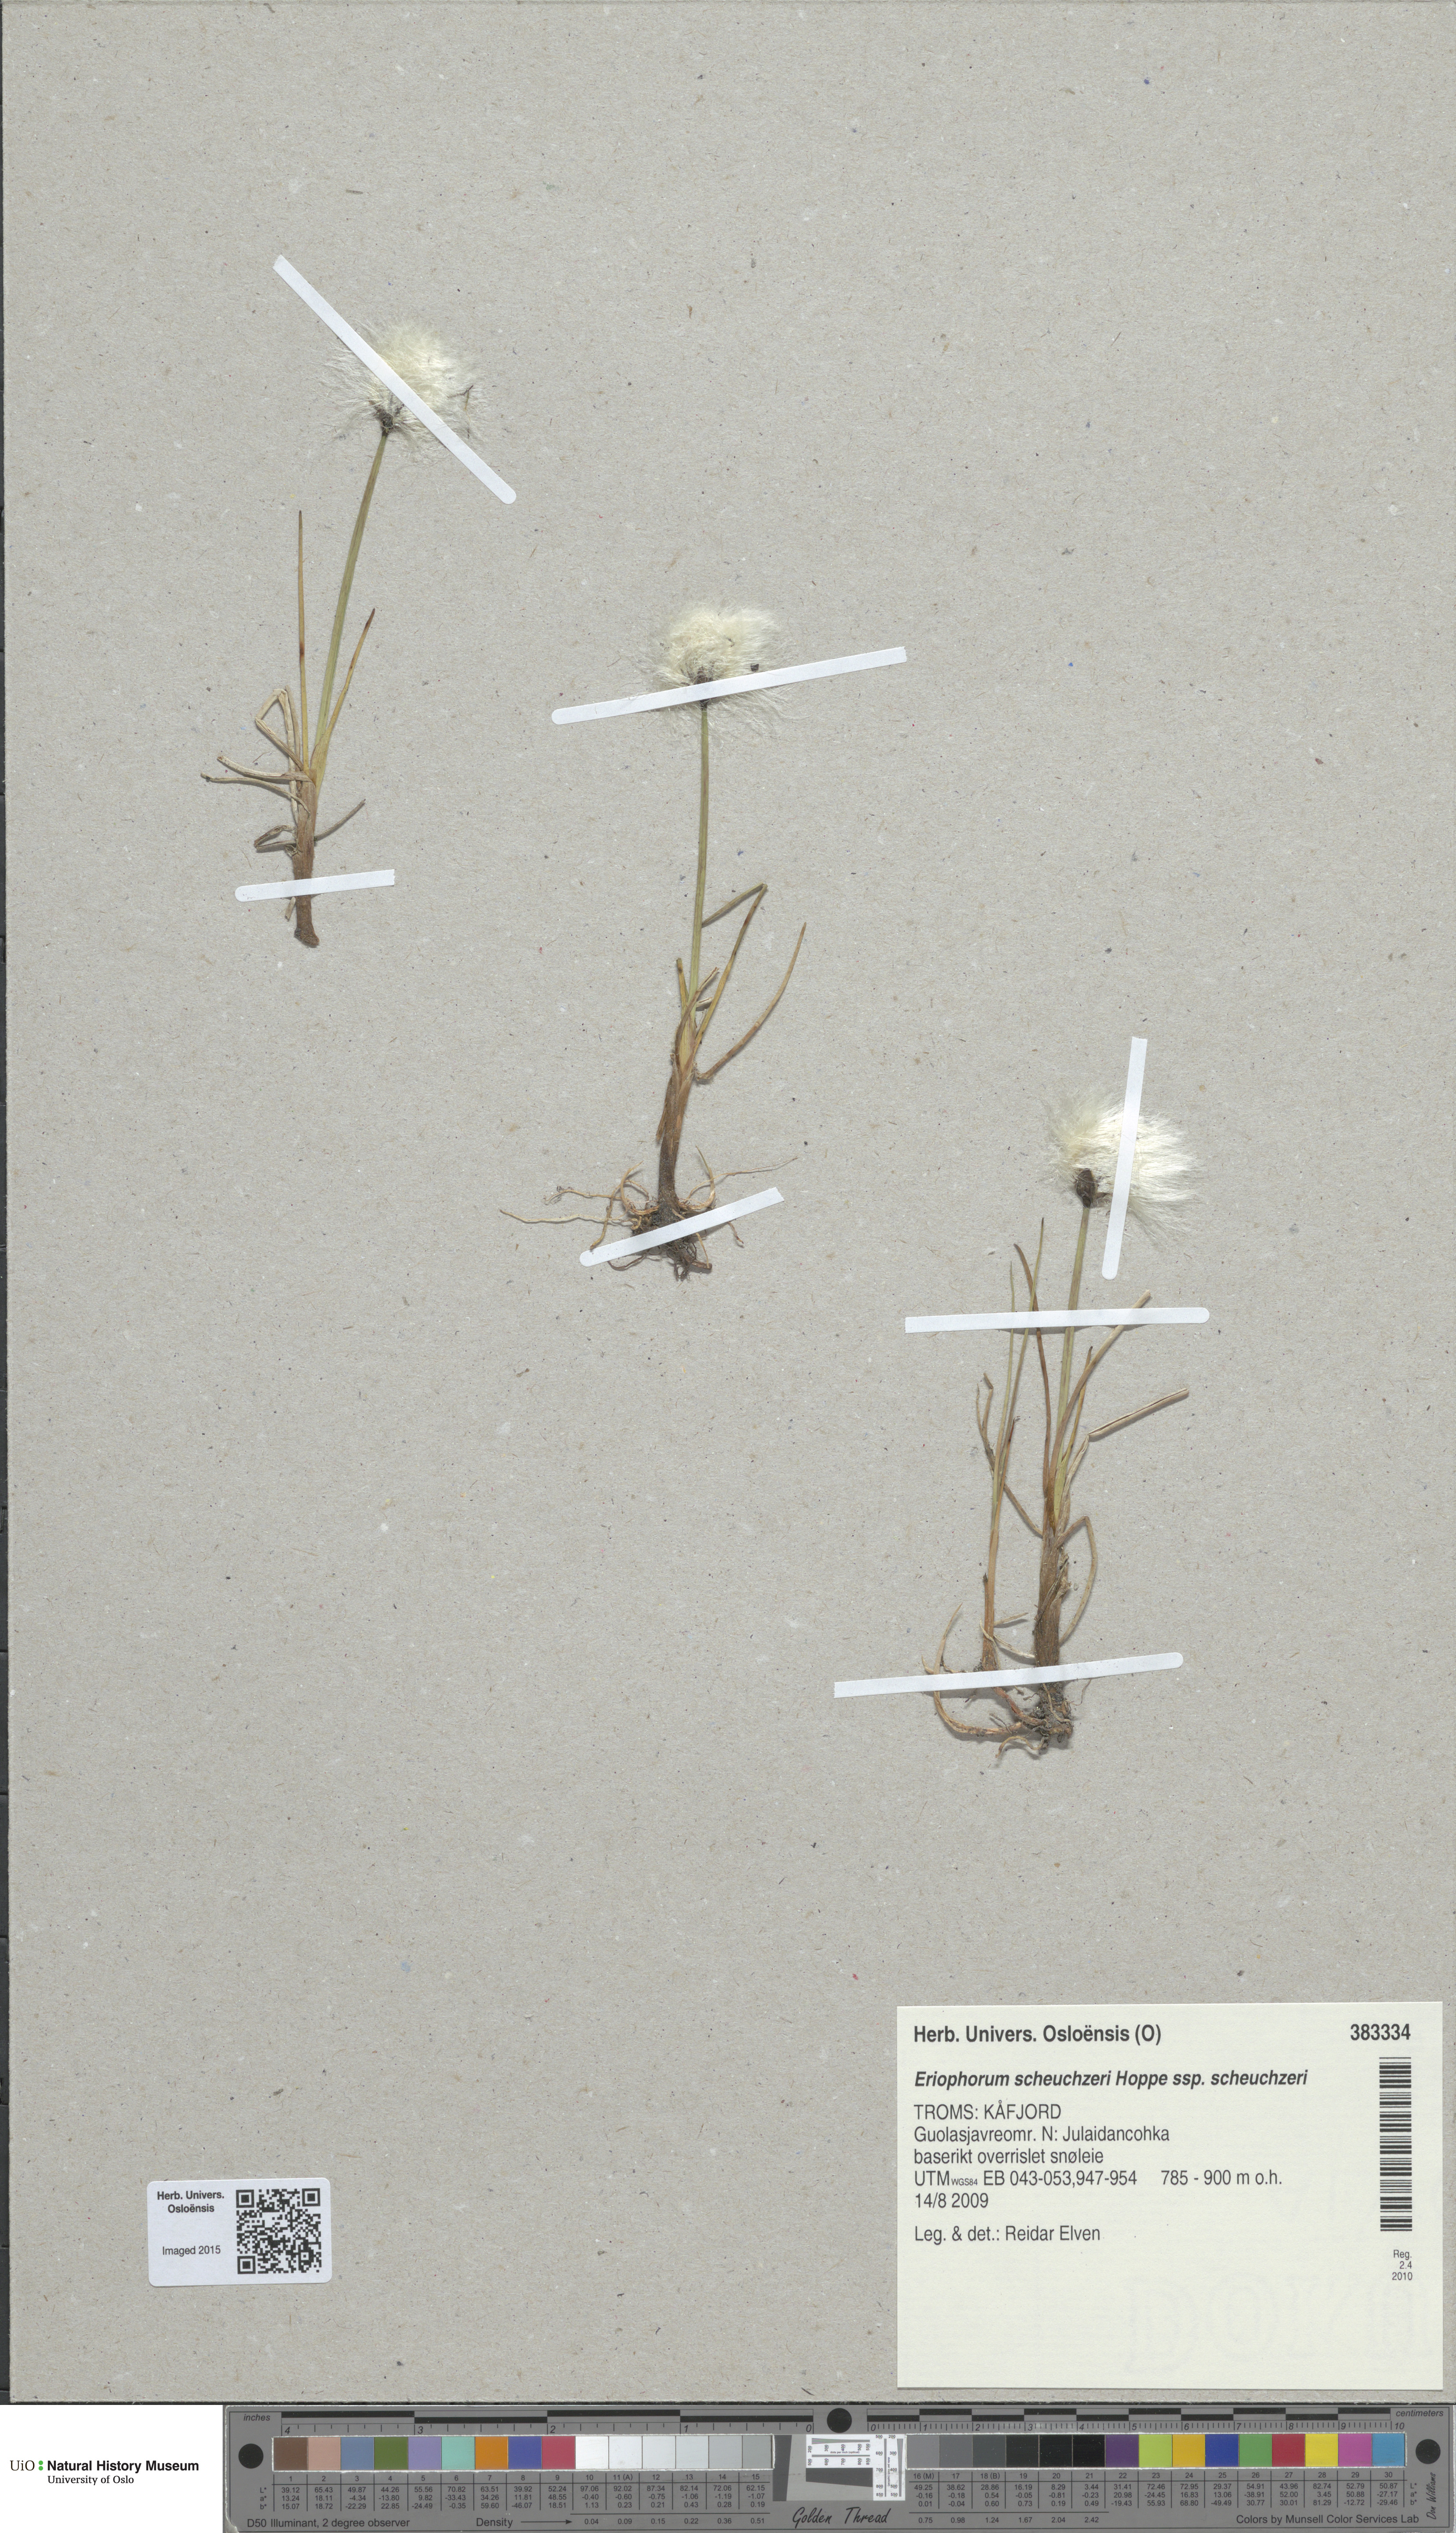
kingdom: Plantae
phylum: Tracheophyta
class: Liliopsida
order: Poales
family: Cyperaceae
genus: Eriophorum
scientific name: Eriophorum scheuchzeri
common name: Scheuchzer's cottongrass
